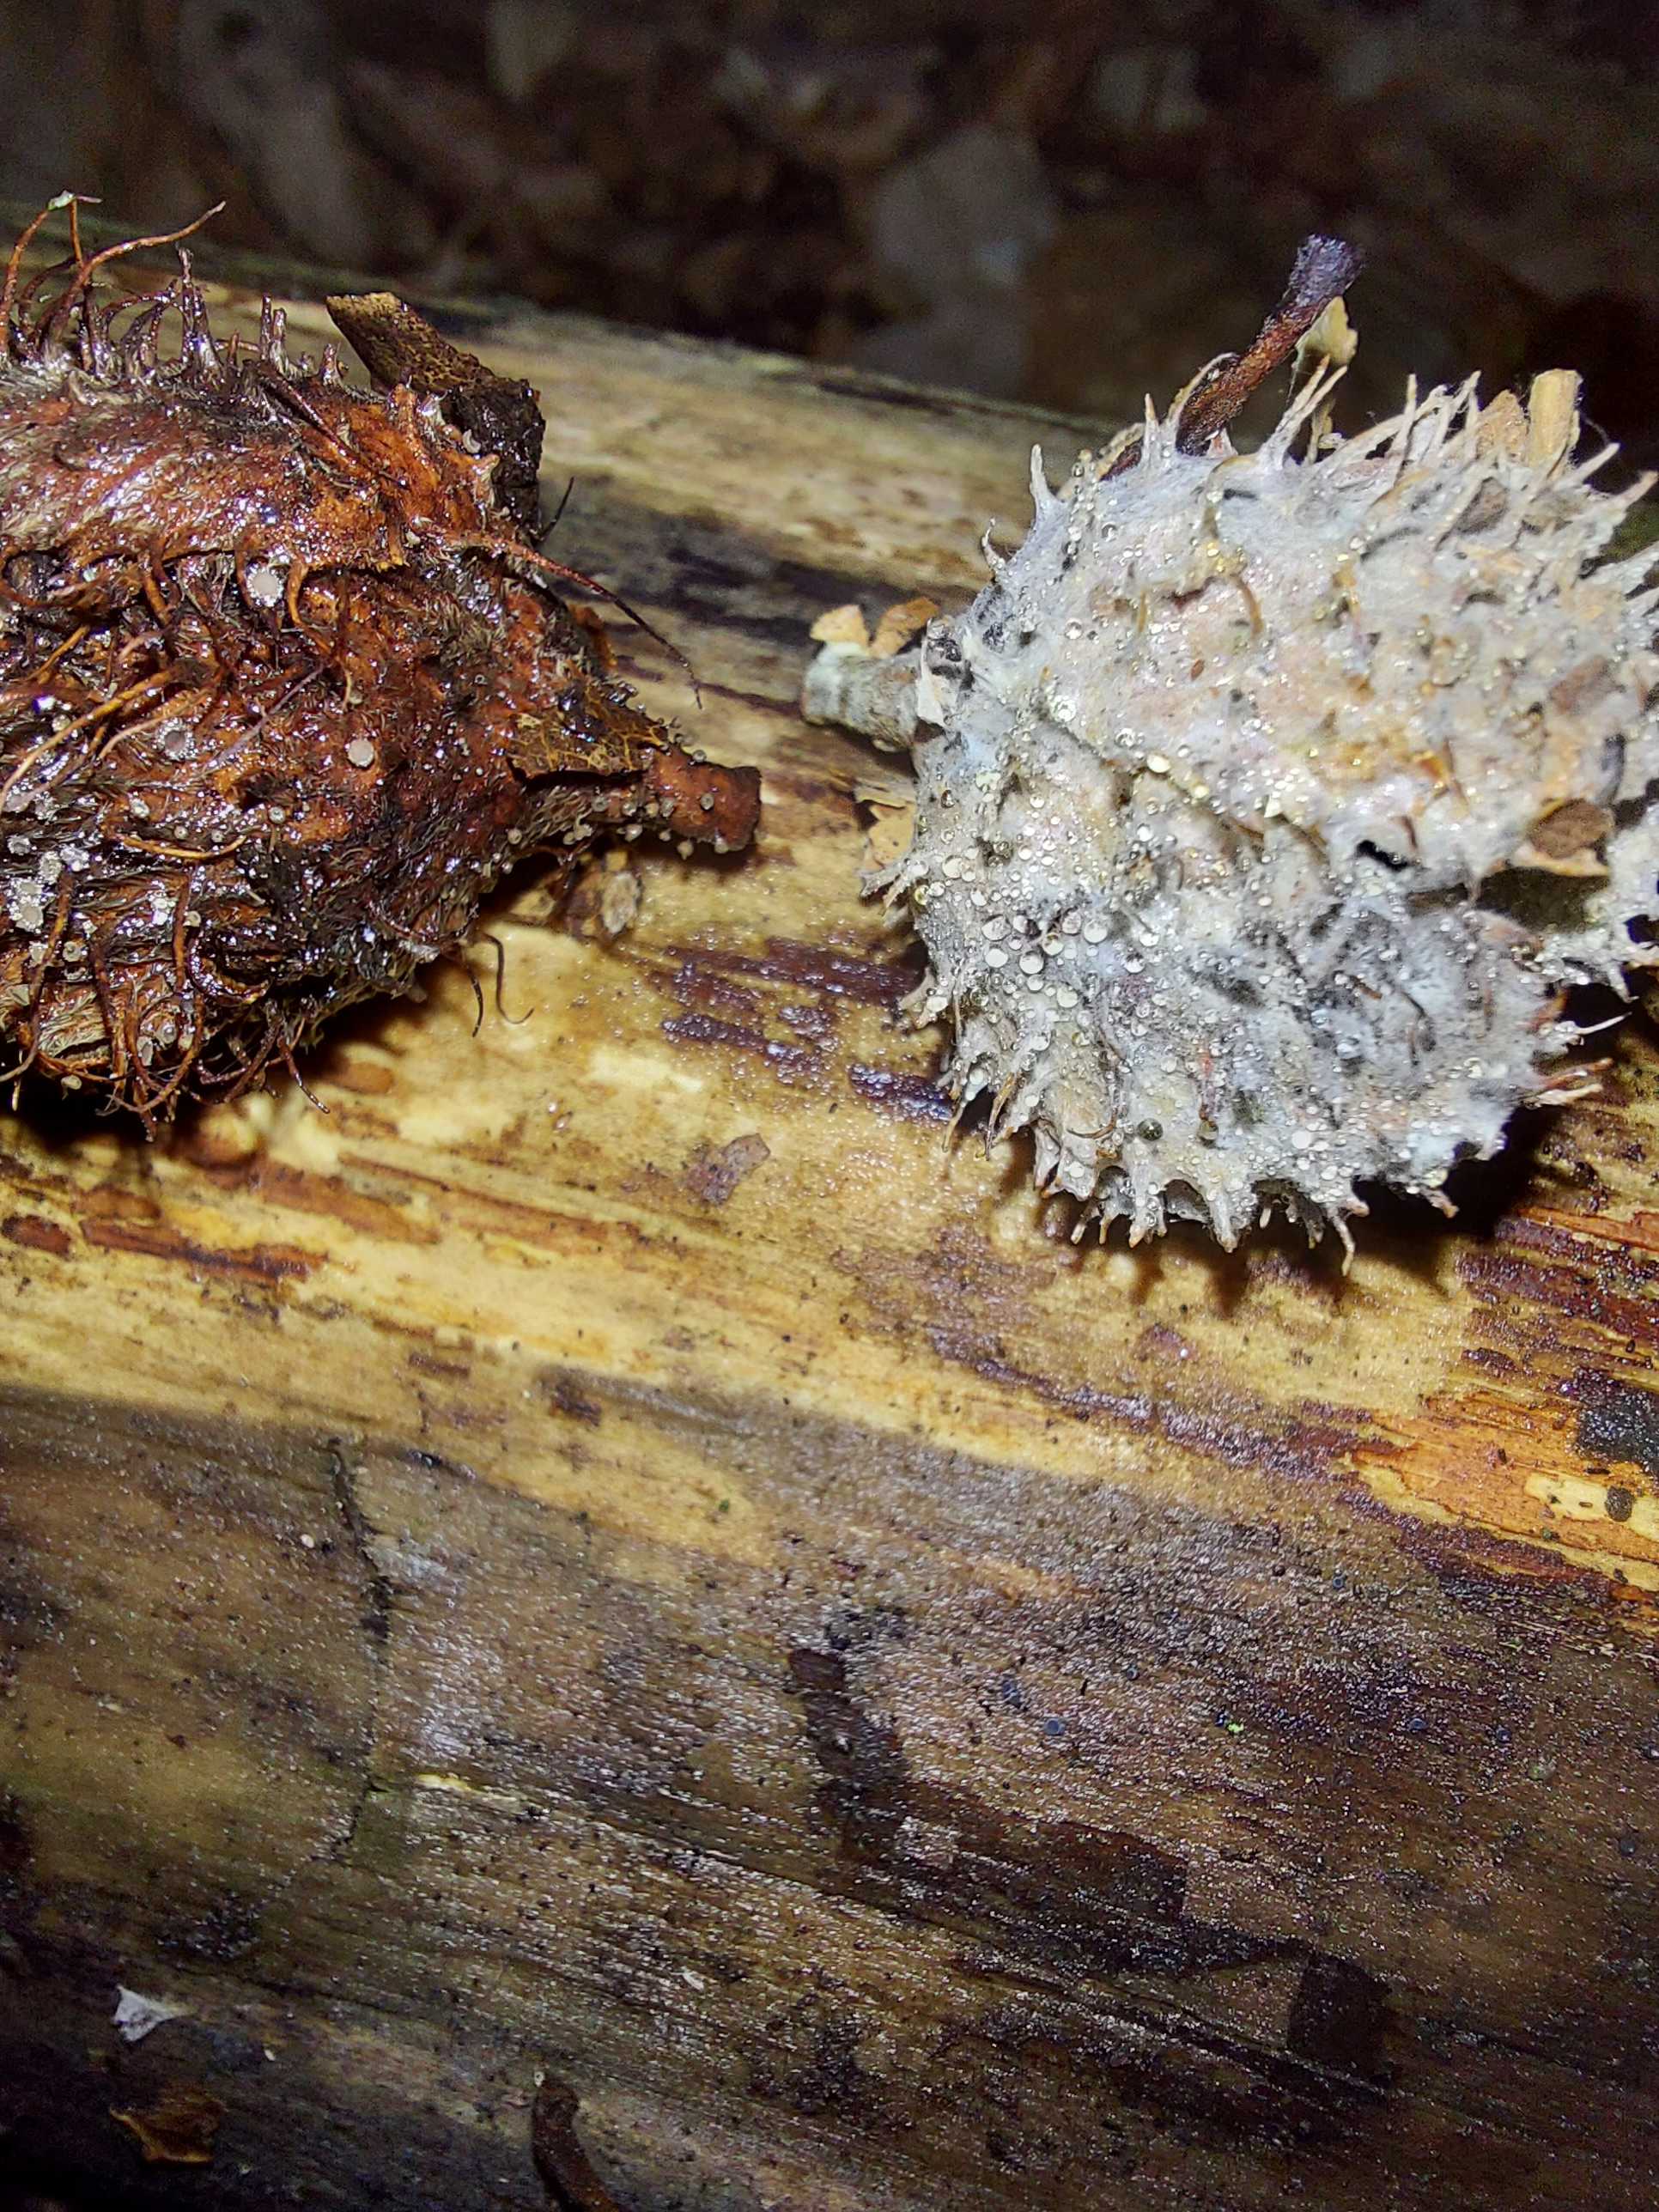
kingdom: Fungi
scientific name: Fungi
